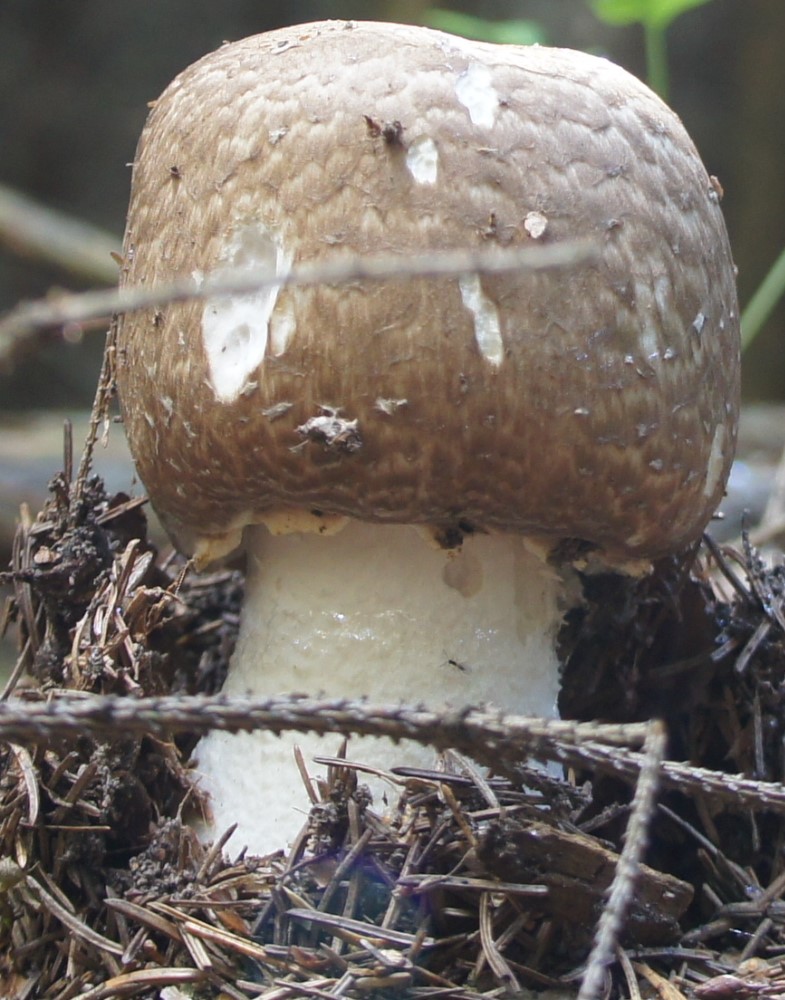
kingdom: Fungi
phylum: Basidiomycota
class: Agaricomycetes
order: Agaricales
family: Agaricaceae
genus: Agaricus
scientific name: Agaricus augustus
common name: prægtig champignon
